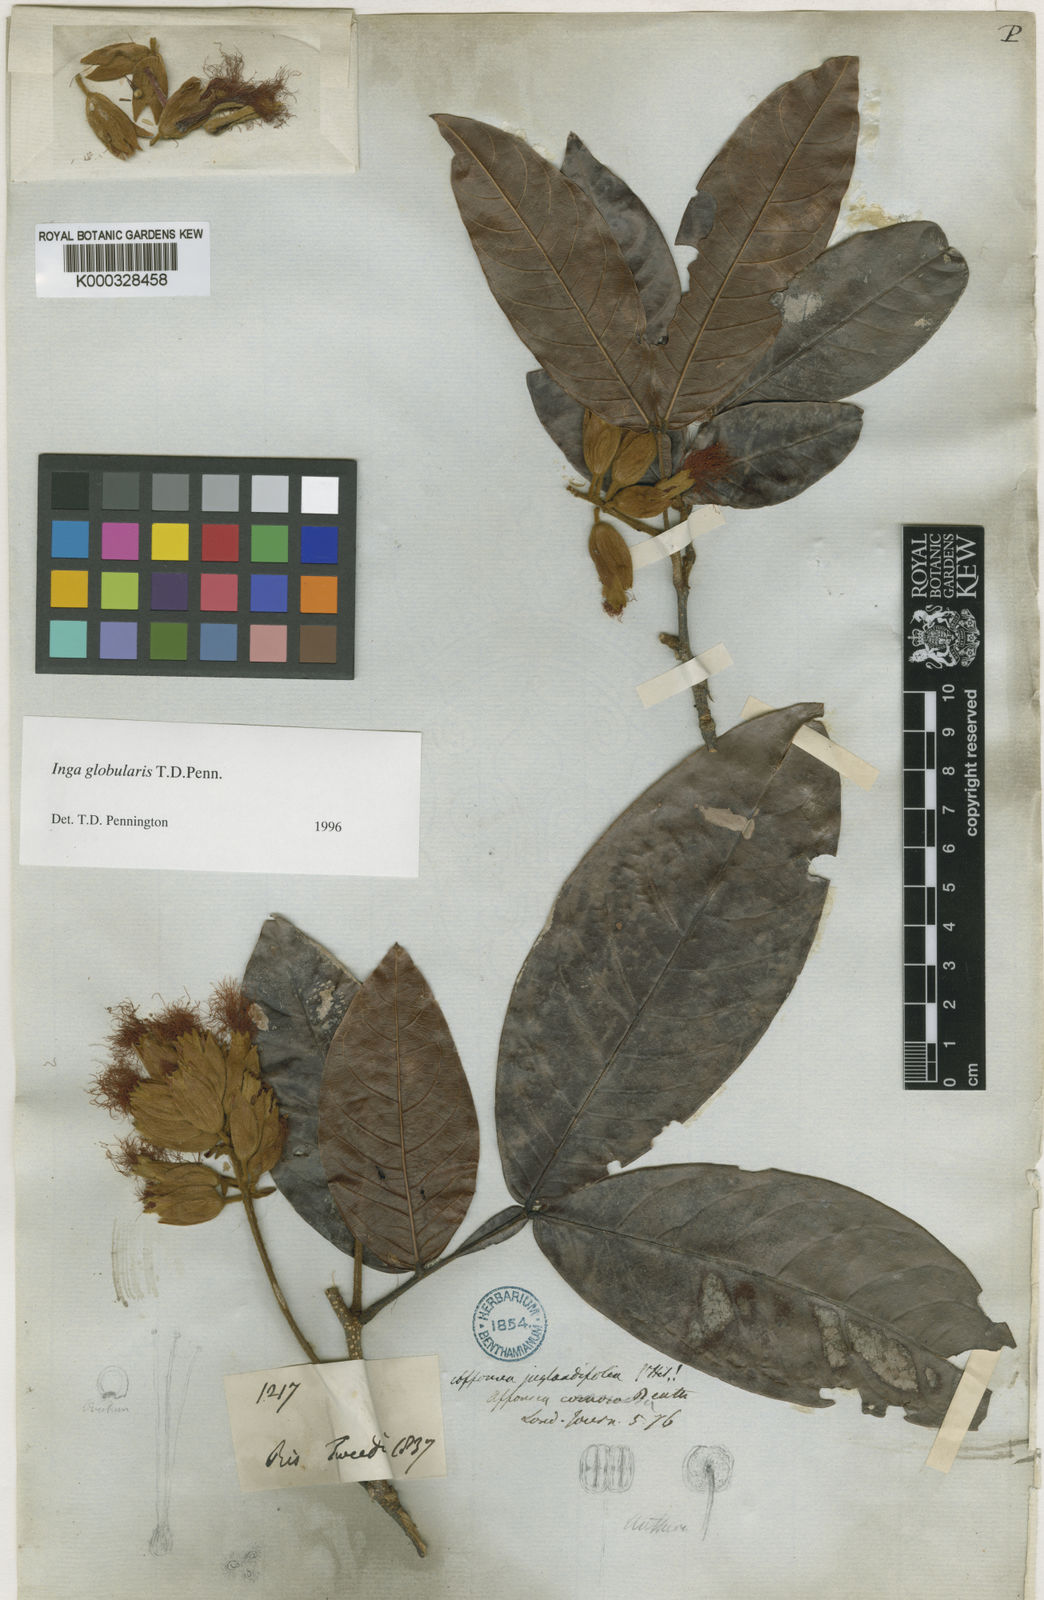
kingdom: Plantae
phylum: Tracheophyta
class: Magnoliopsida
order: Fabales
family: Fabaceae
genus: Inga
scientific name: Inga globularis
